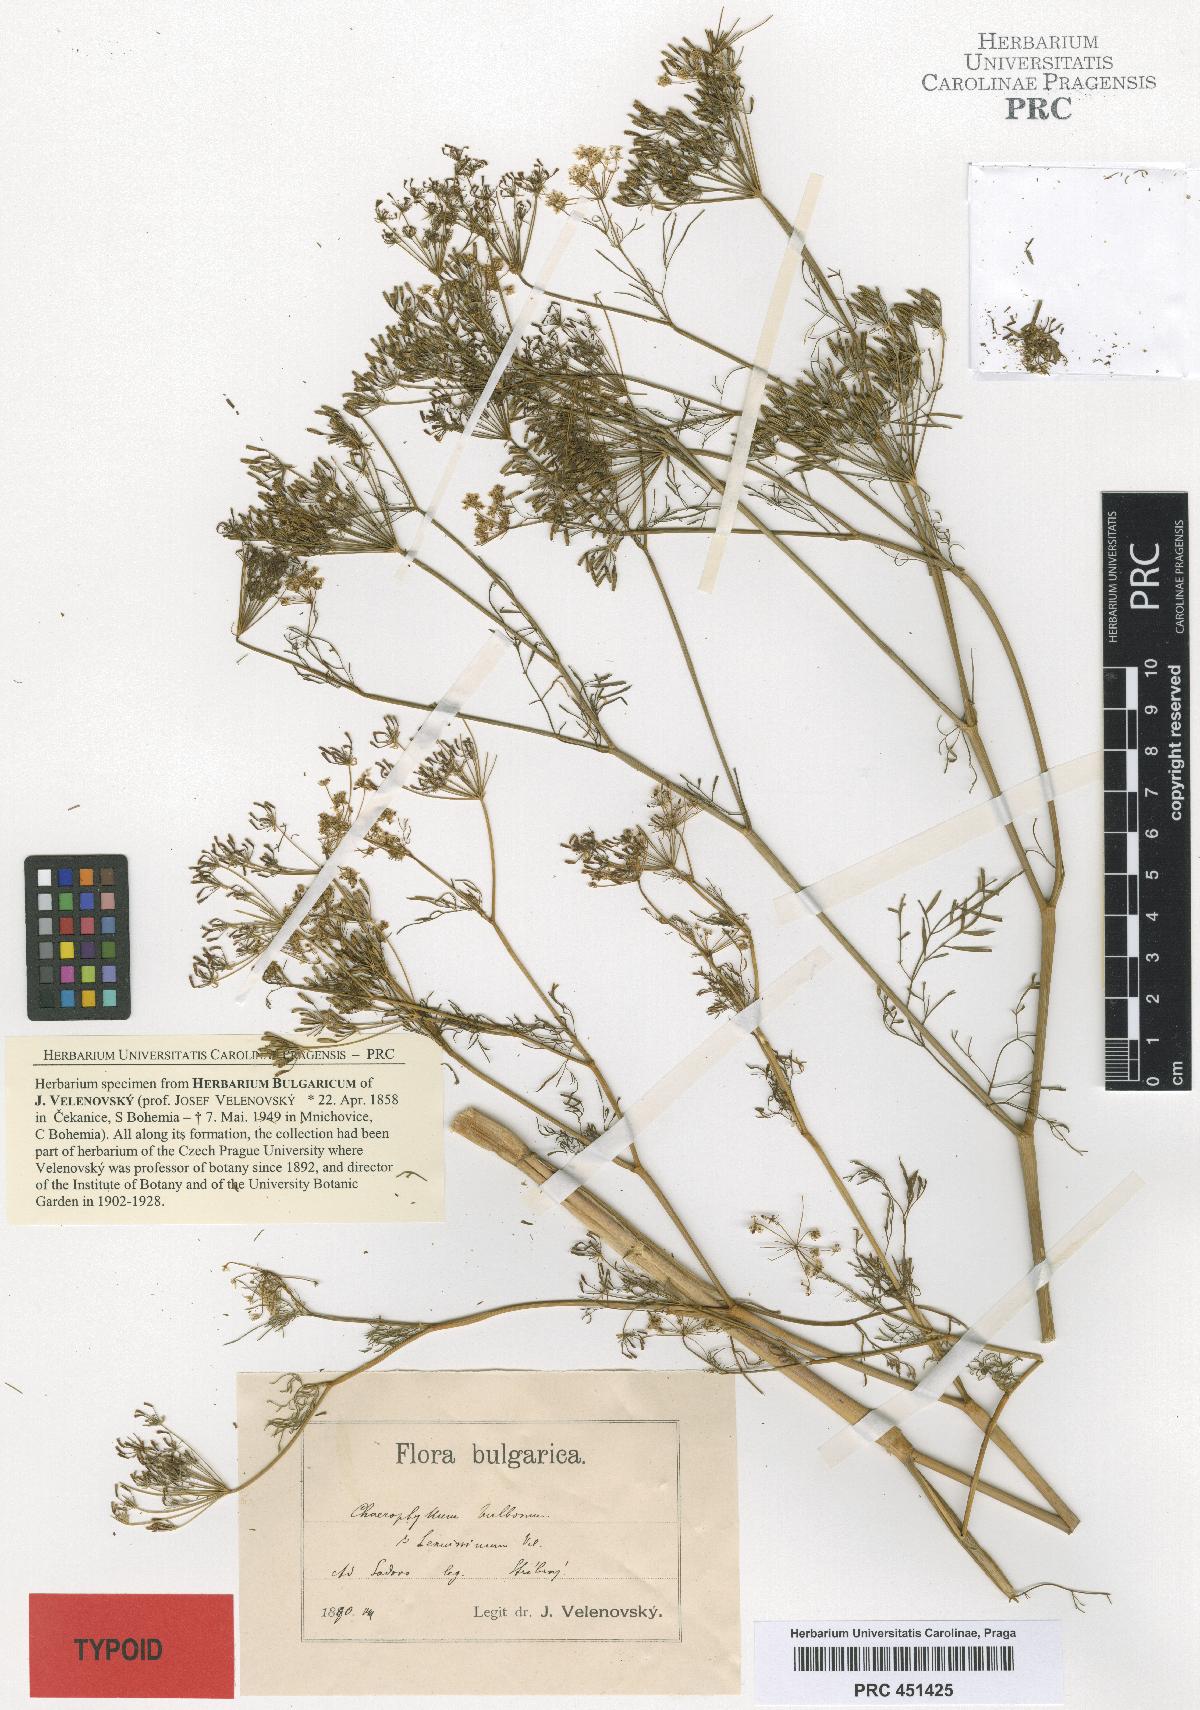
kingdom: Plantae
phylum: Tracheophyta
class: Magnoliopsida
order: Apiales
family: Apiaceae
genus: Chaerophyllum
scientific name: Chaerophyllum bulbosum
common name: Bulbous chervil
